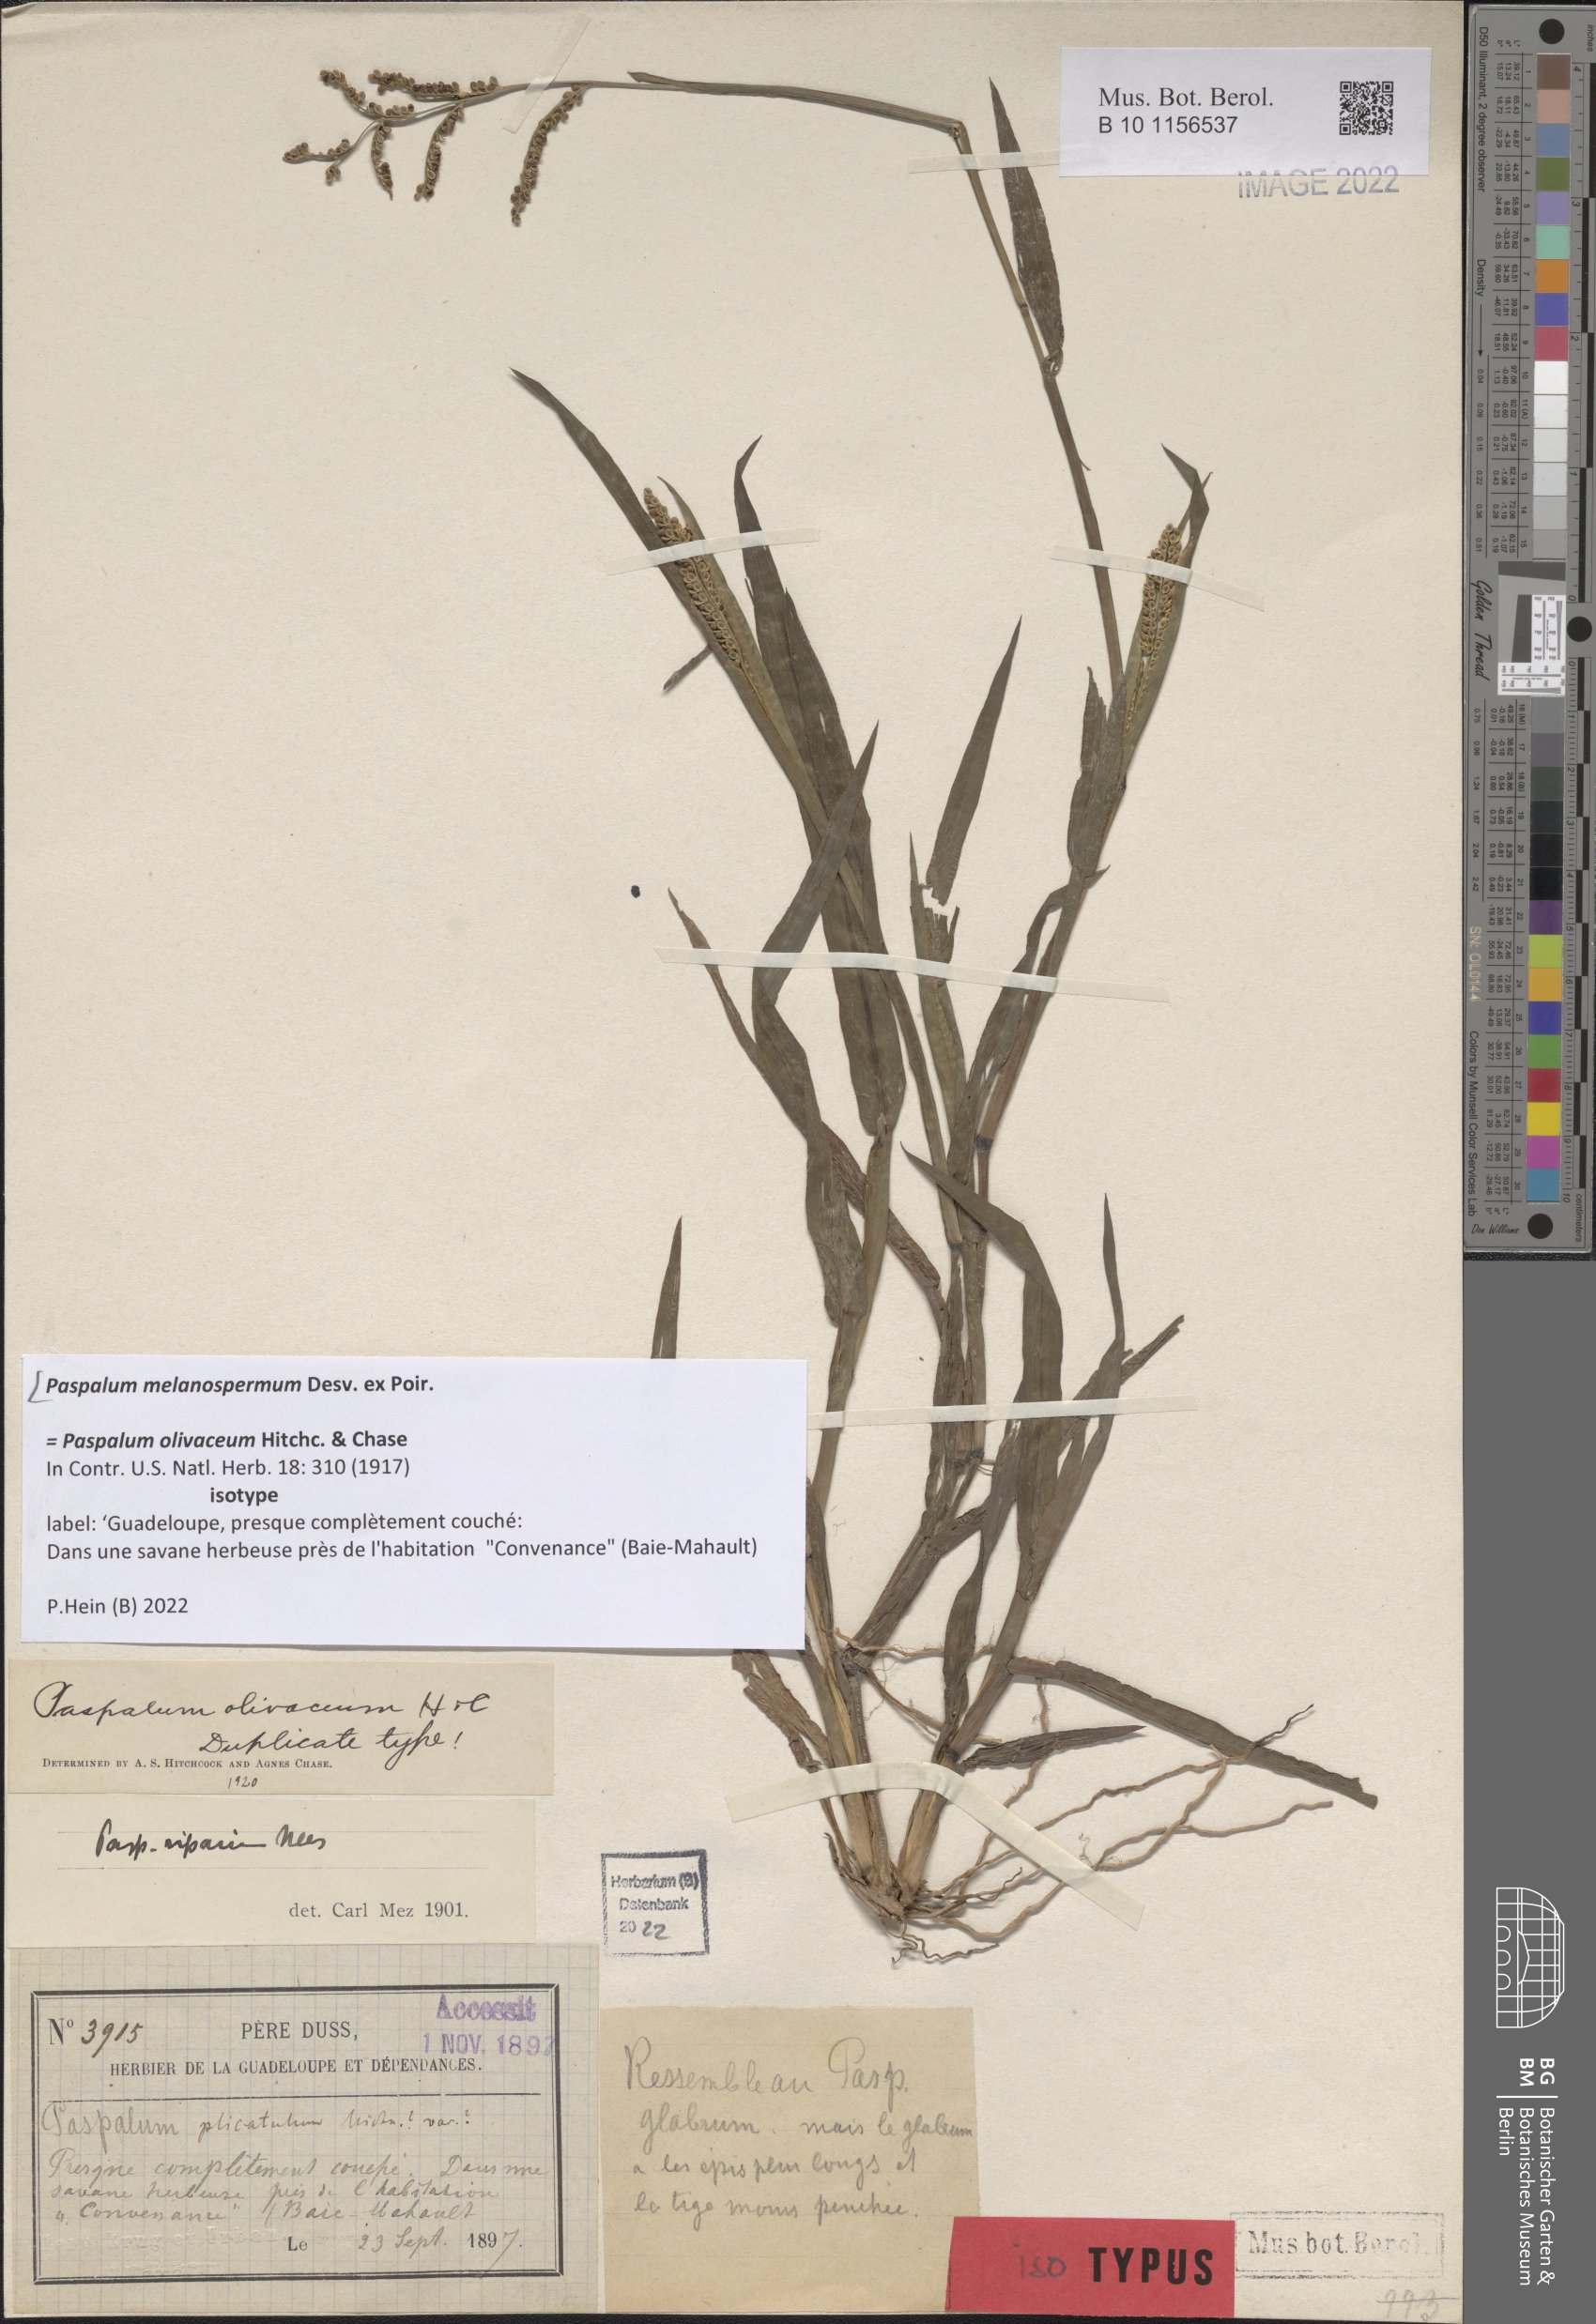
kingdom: Plantae
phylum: Tracheophyta
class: Liliopsida
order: Poales
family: Poaceae
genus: Paspalum
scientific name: Paspalum melanospermum
